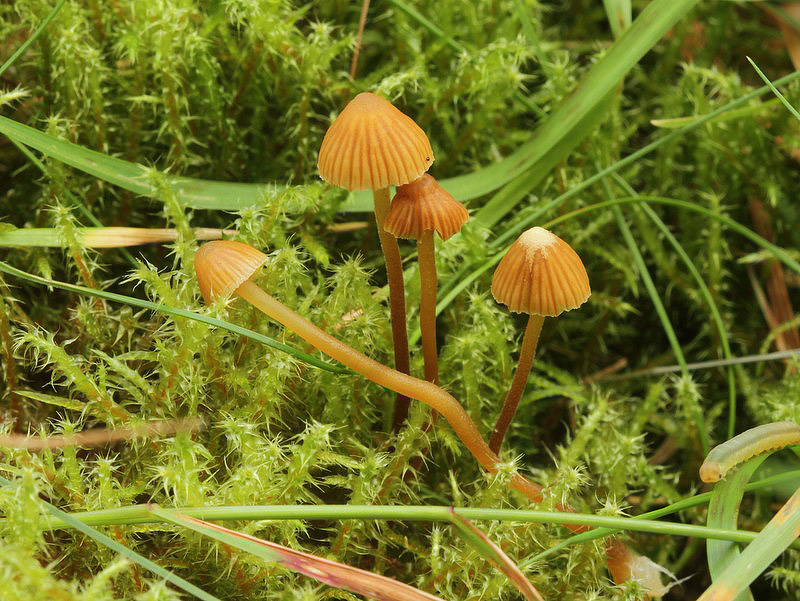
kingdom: Fungi
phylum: Basidiomycota
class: Agaricomycetes
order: Agaricales
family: Hymenogastraceae
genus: Galerina
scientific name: Galerina atkinsoniana
